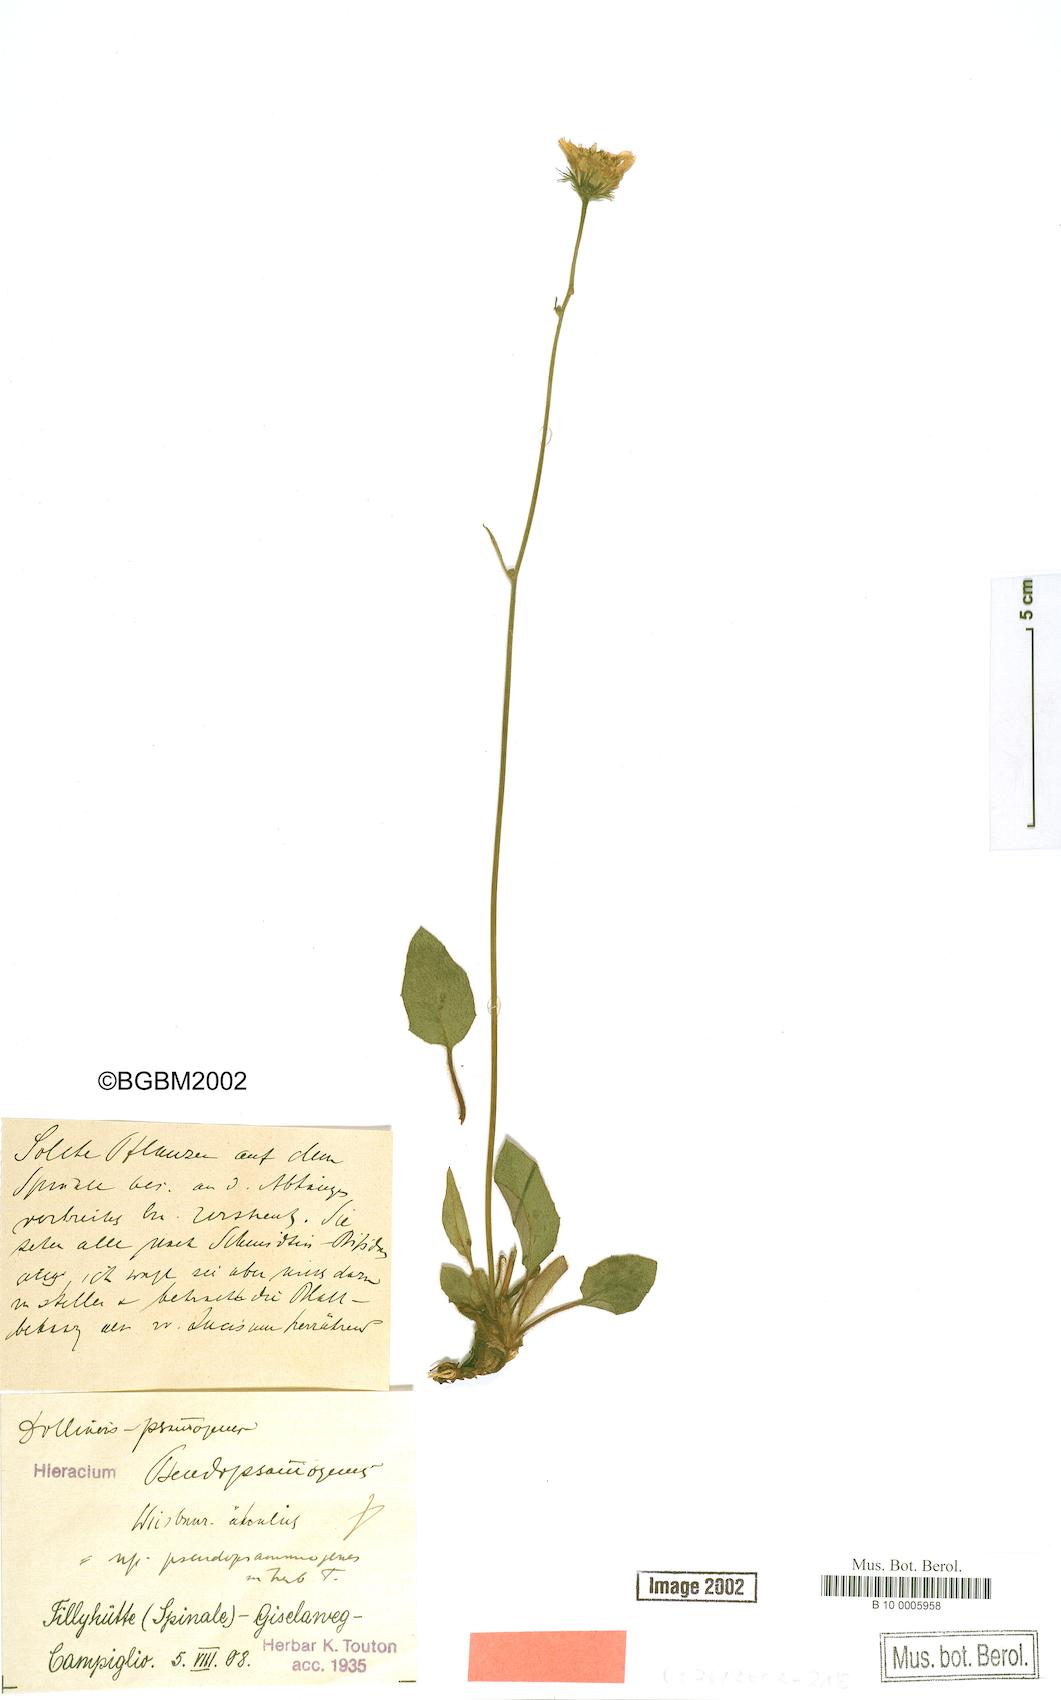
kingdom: Plantae
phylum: Tracheophyta
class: Magnoliopsida
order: Asterales
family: Asteraceae
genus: Hieracium
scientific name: Hieracium bifidum
